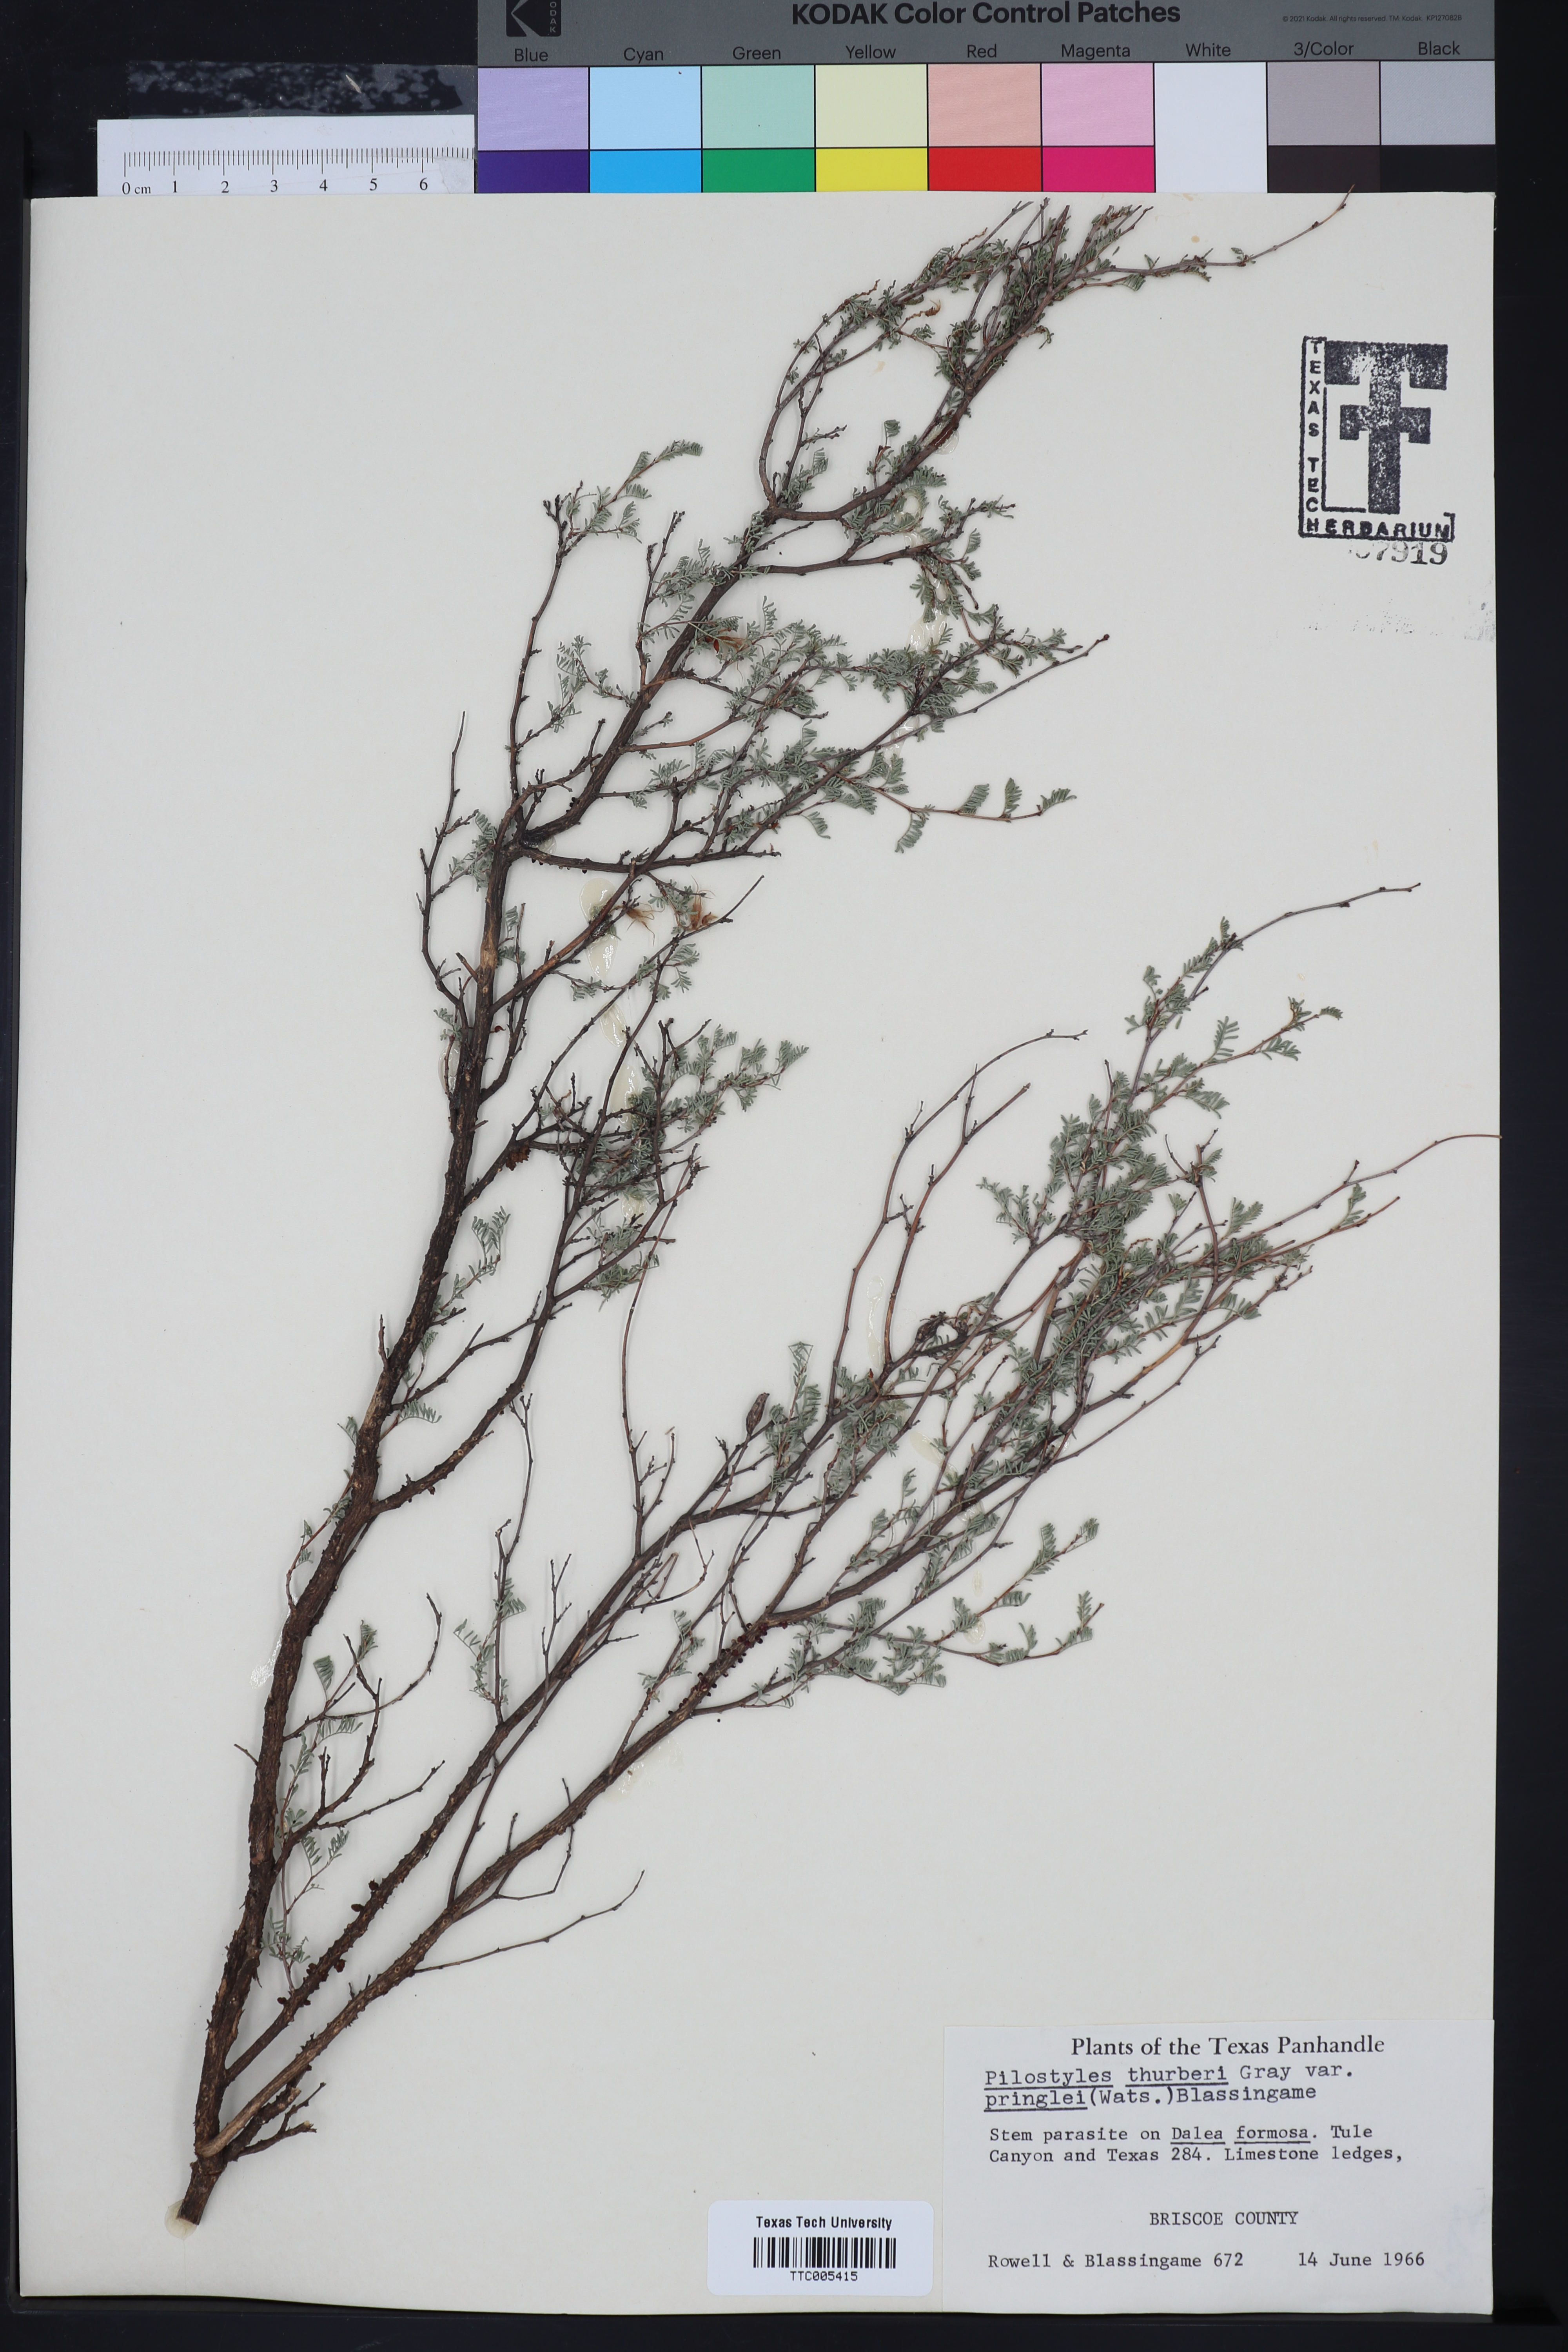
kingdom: Plantae
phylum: Tracheophyta
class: Magnoliopsida
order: Cucurbitales
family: Apodanthaceae
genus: Pilostyles
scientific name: Pilostyles thurberi
